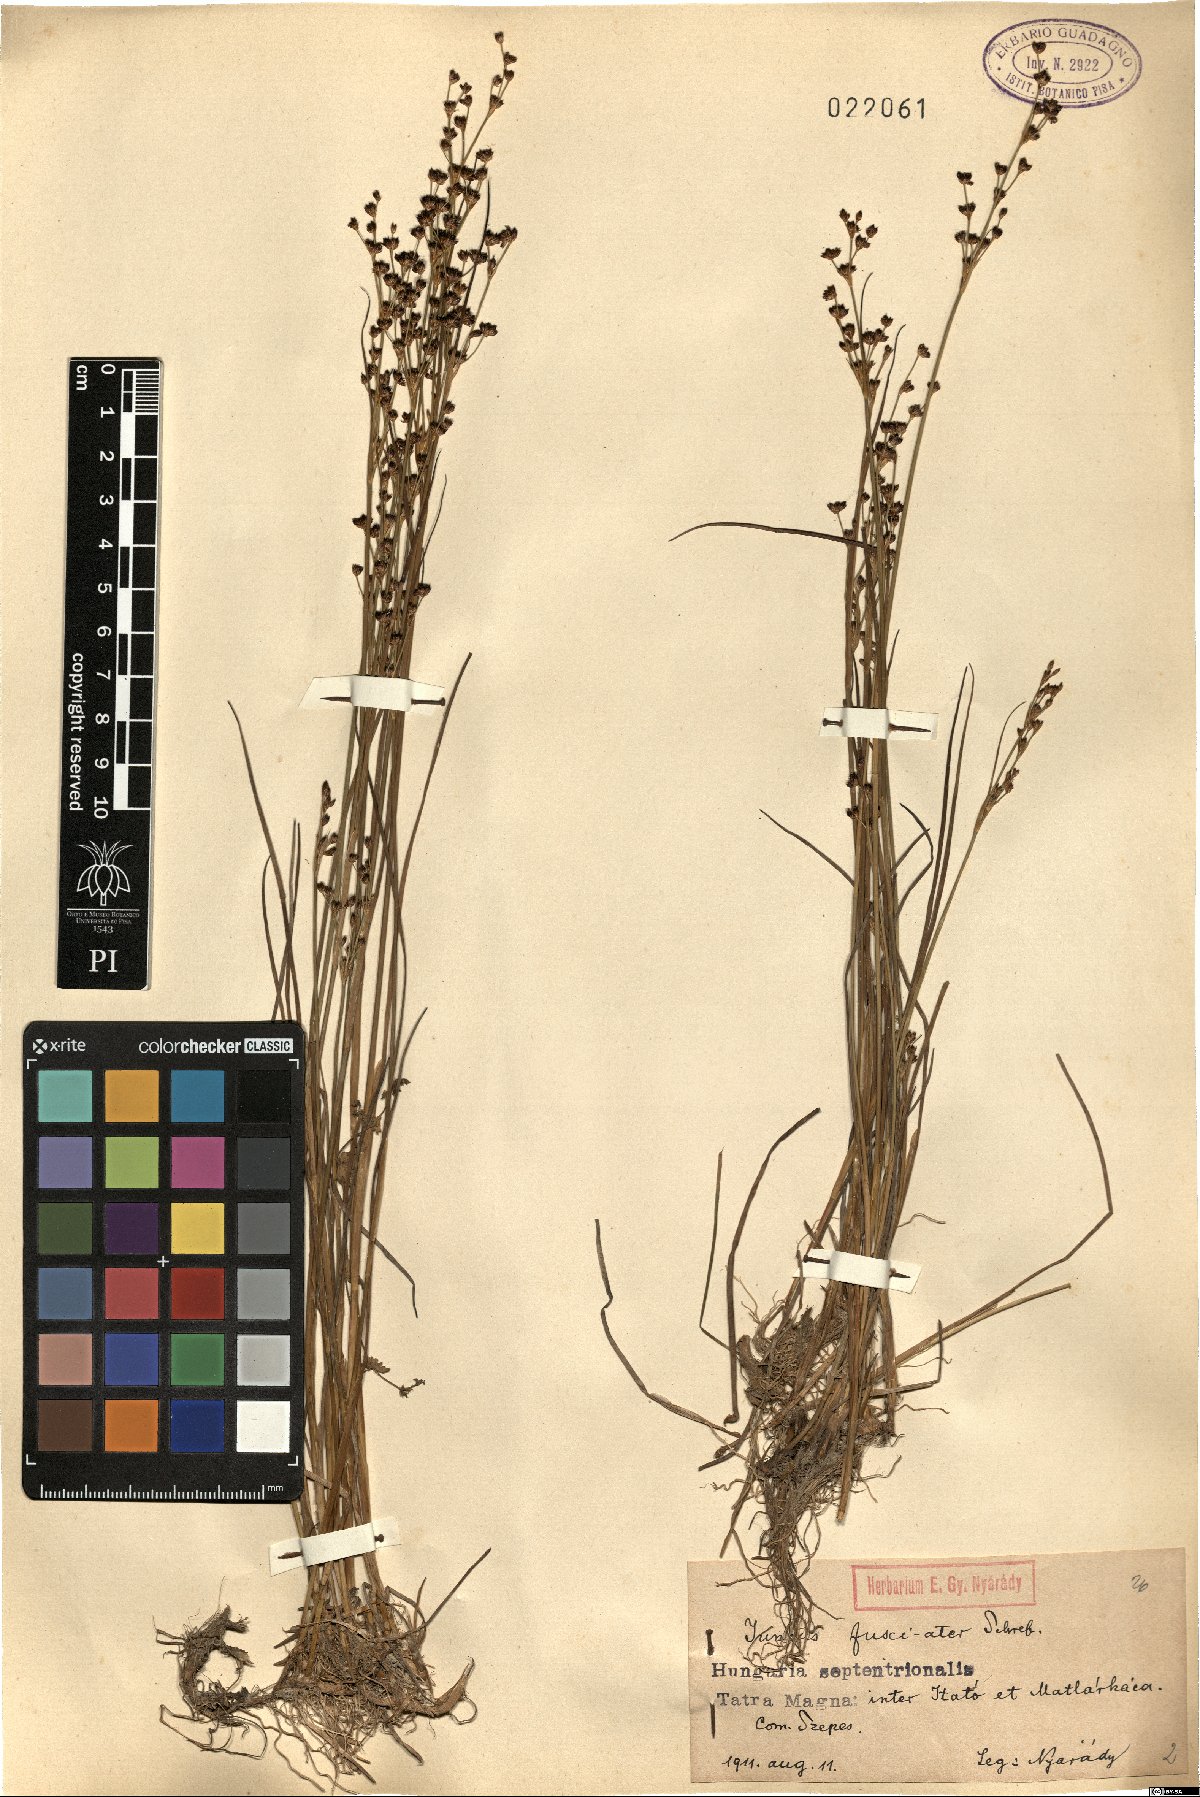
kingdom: Plantae
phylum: Tracheophyta
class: Liliopsida
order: Poales
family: Juncaceae
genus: Juncus
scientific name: Juncus alpinoarticulatus
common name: Alpine rush
